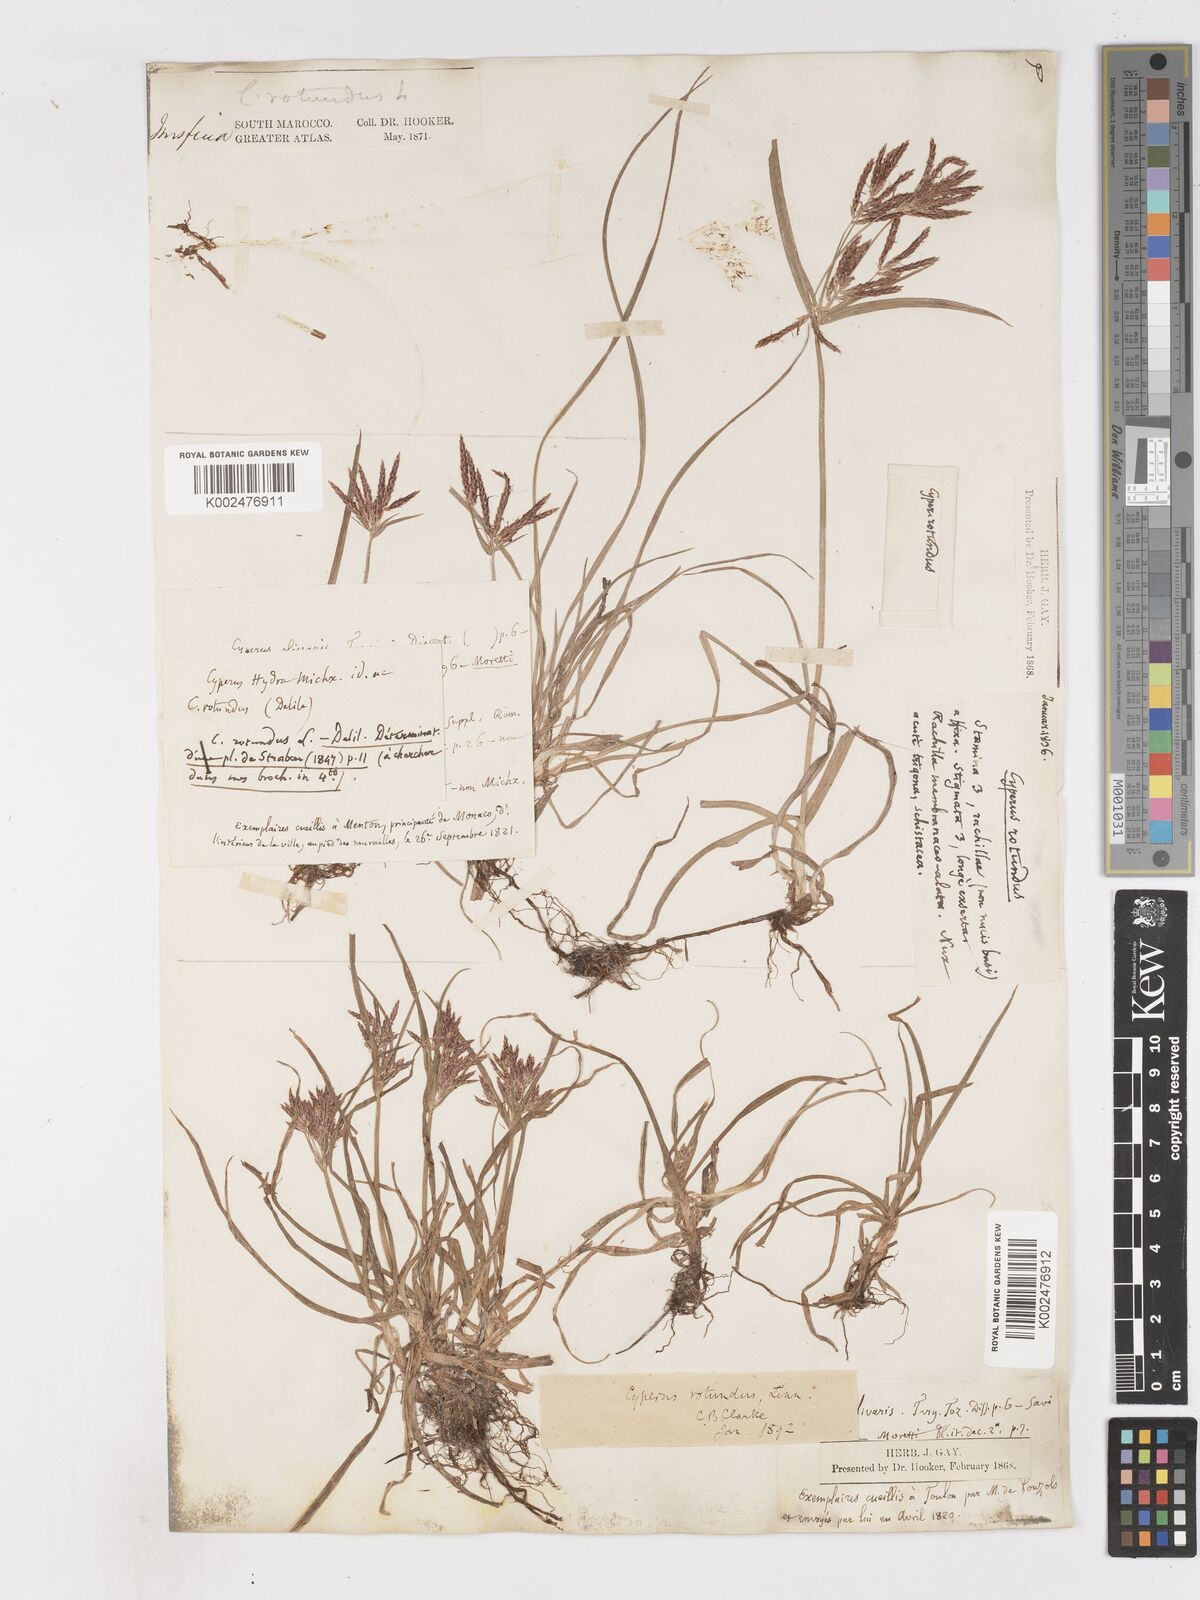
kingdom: Plantae
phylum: Tracheophyta
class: Liliopsida
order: Poales
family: Cyperaceae
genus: Cyperus
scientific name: Cyperus rotundus
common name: Nutgrass
